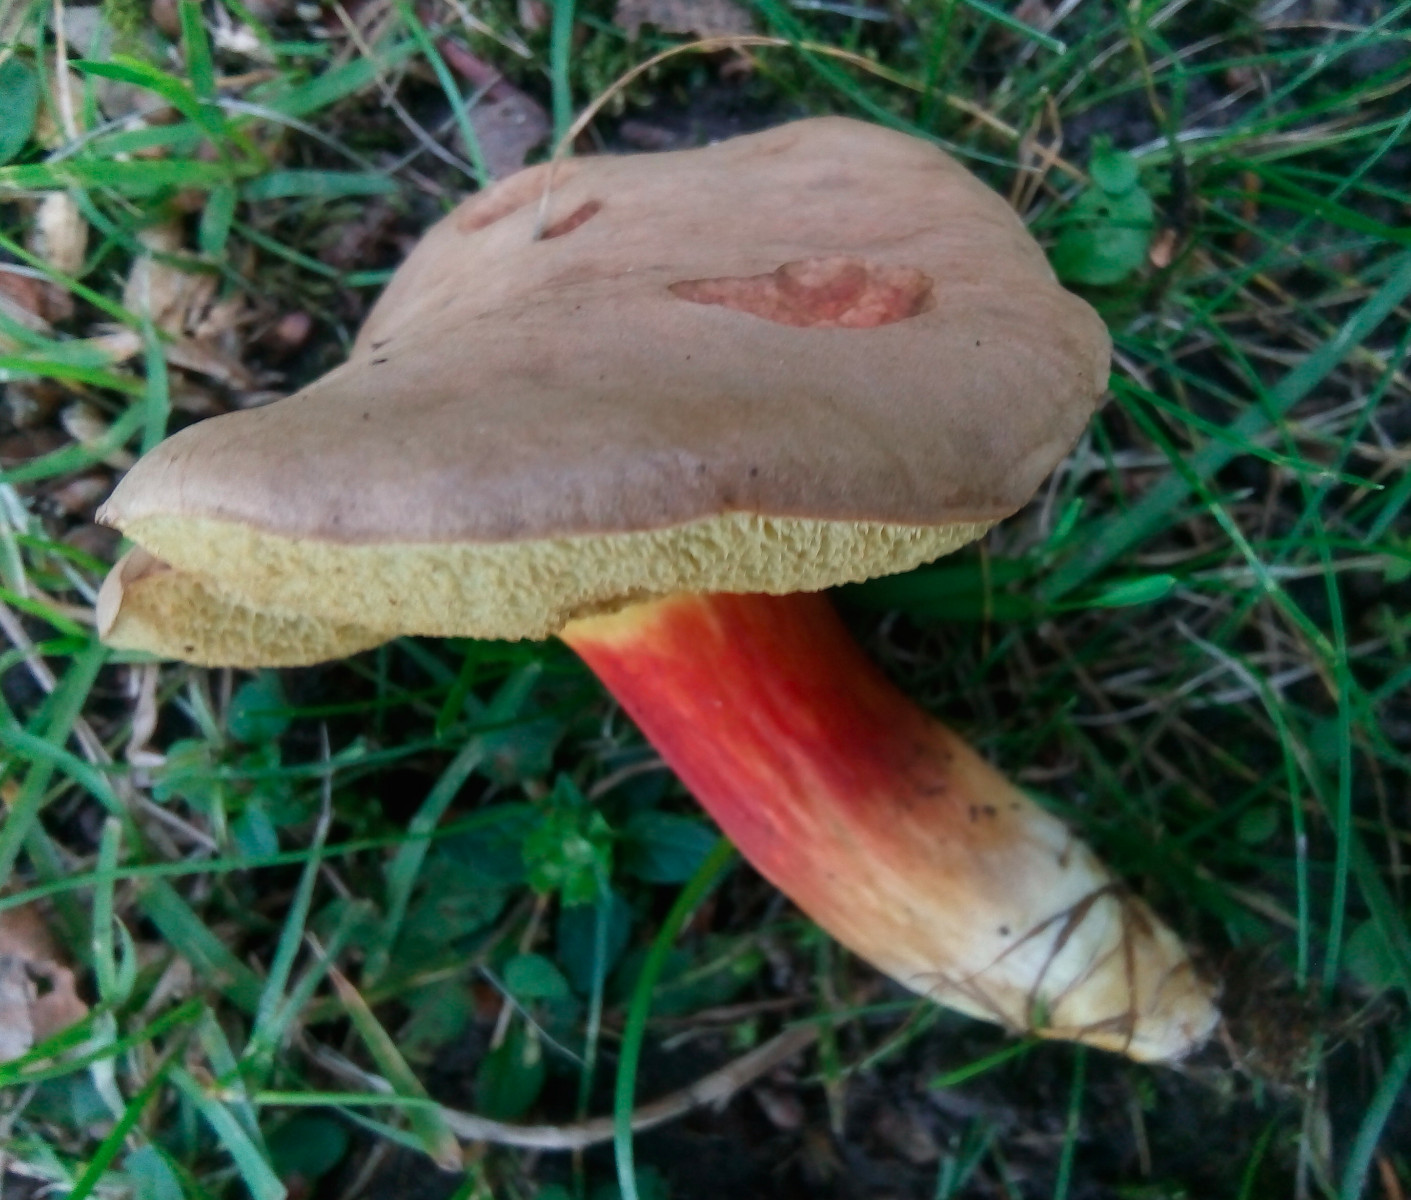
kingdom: Fungi
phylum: Basidiomycota
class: Agaricomycetes
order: Boletales
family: Boletaceae
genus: Hortiboletus
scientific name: Hortiboletus engelii
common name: fersken-rørhat
